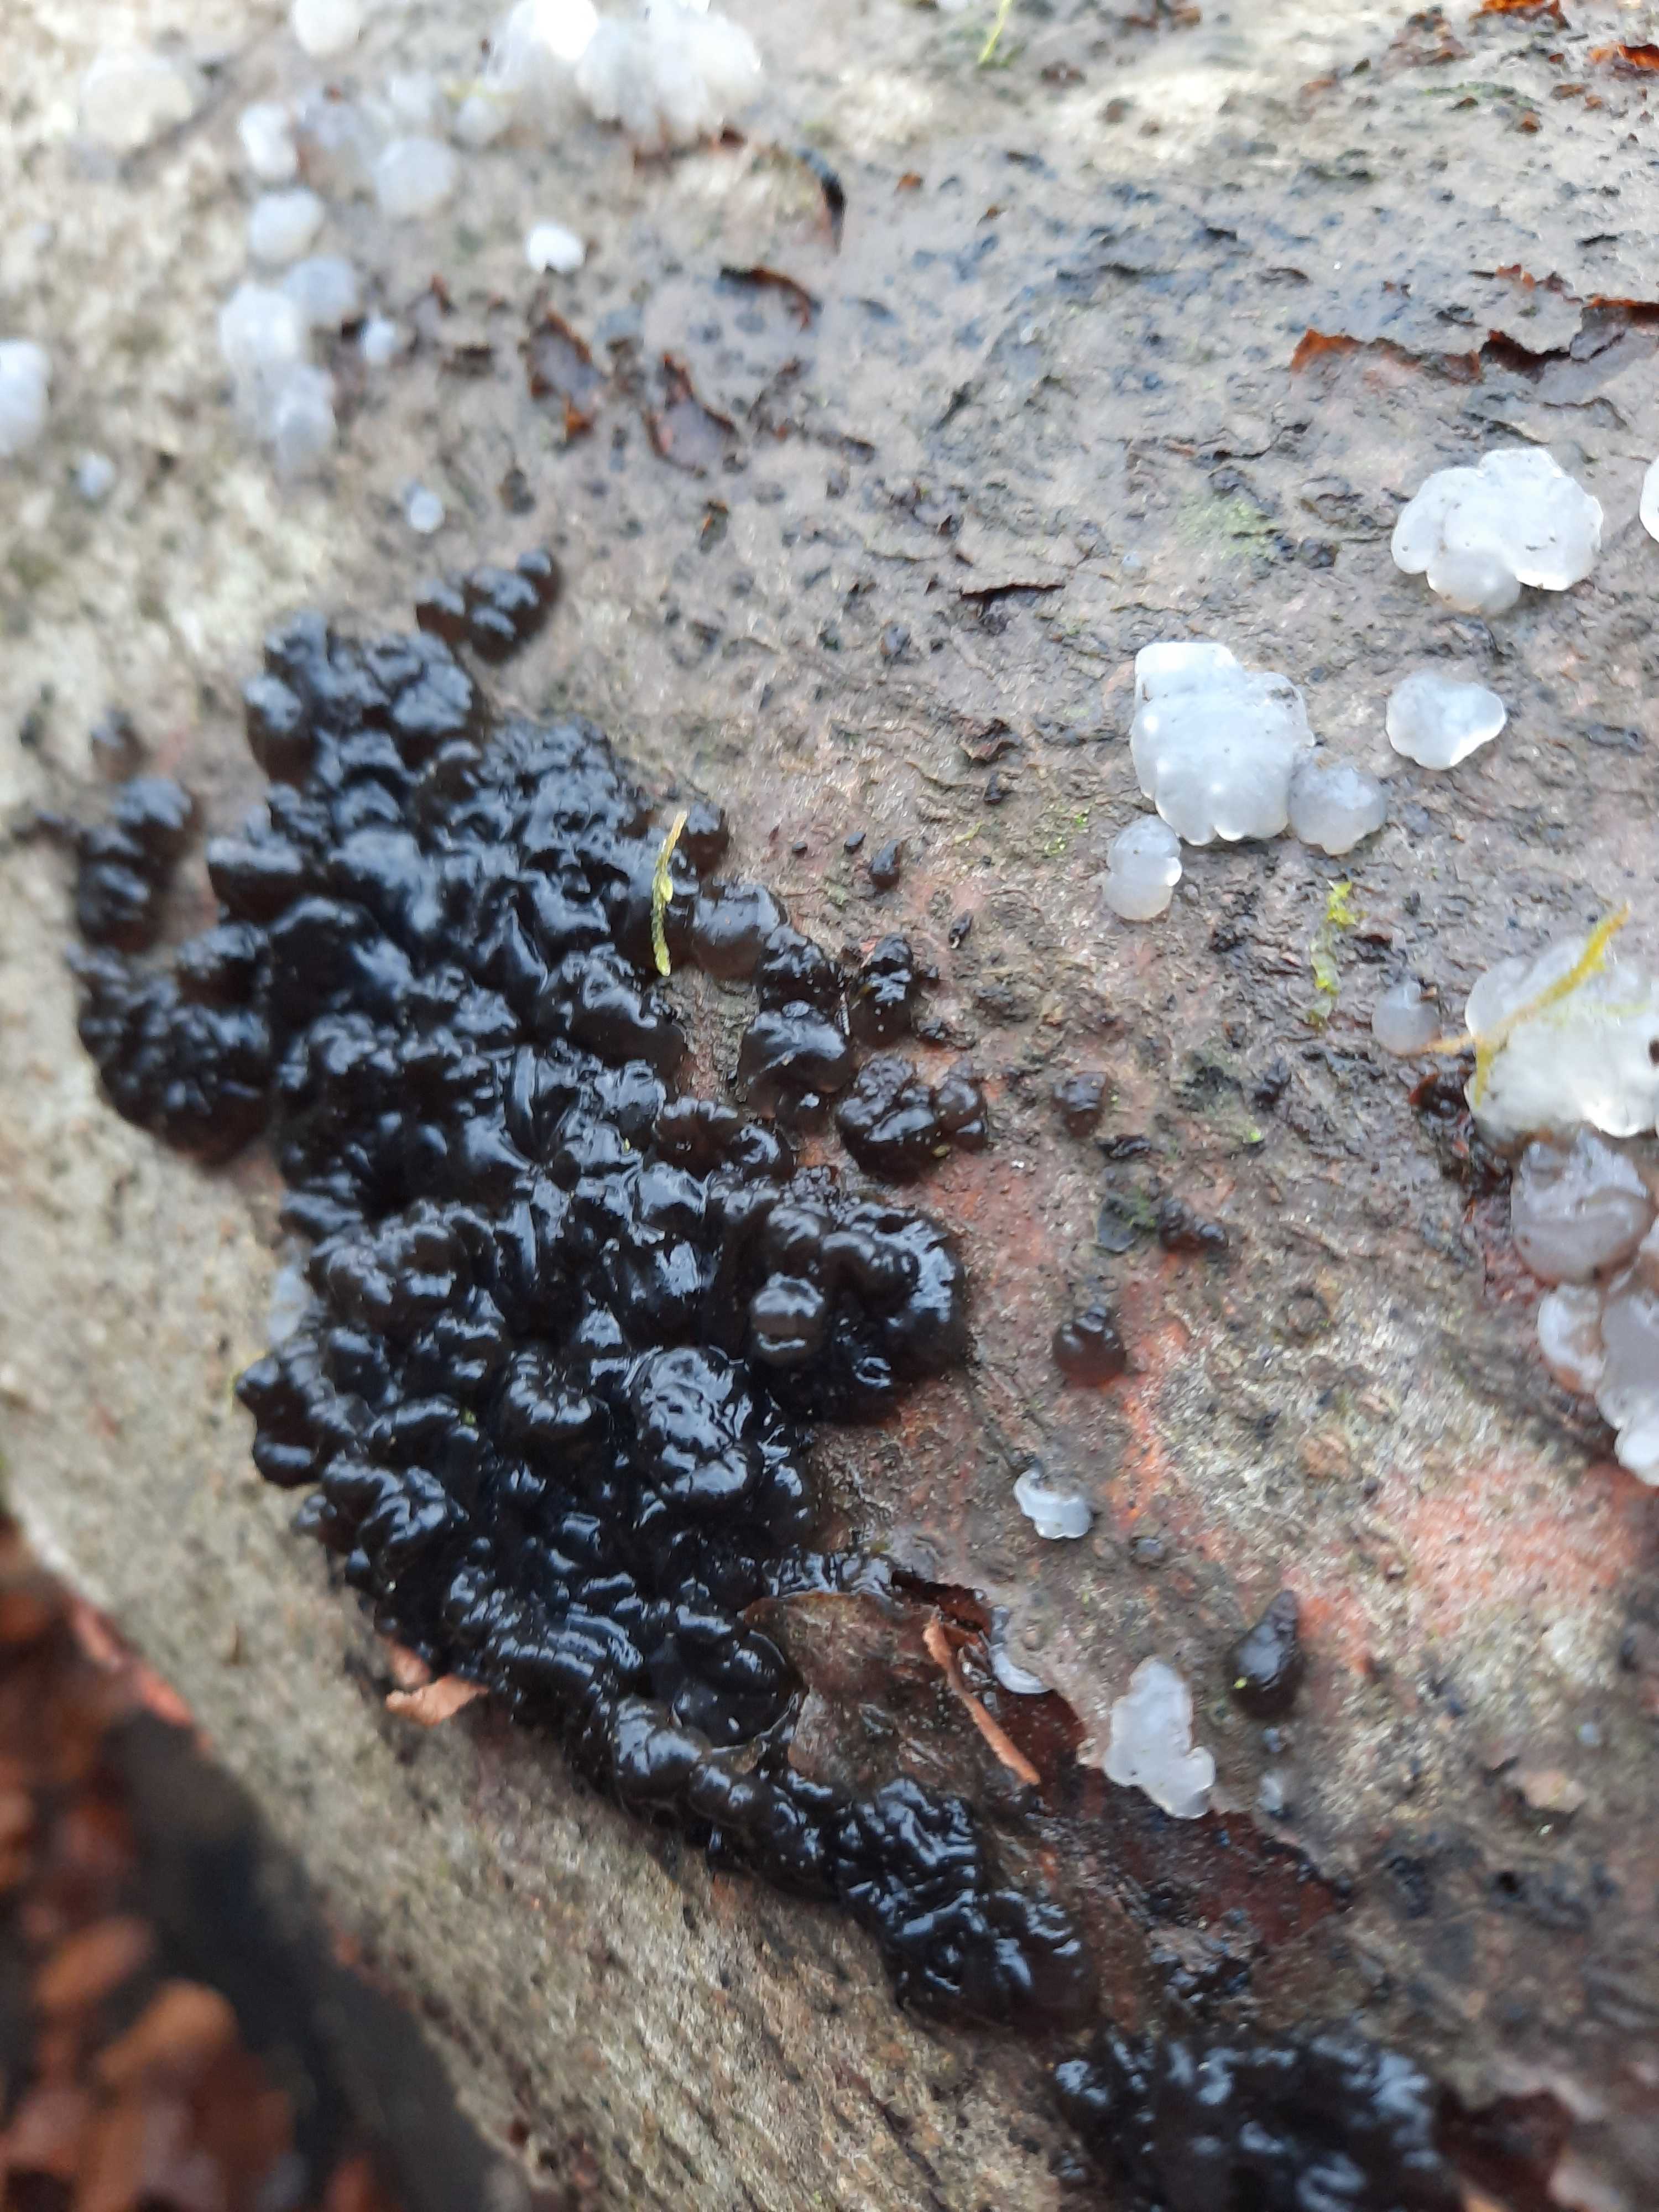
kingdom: Fungi
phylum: Basidiomycota
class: Agaricomycetes
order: Auriculariales
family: Auriculariaceae
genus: Exidia
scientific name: Exidia nigricans
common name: almindelig bævretop
